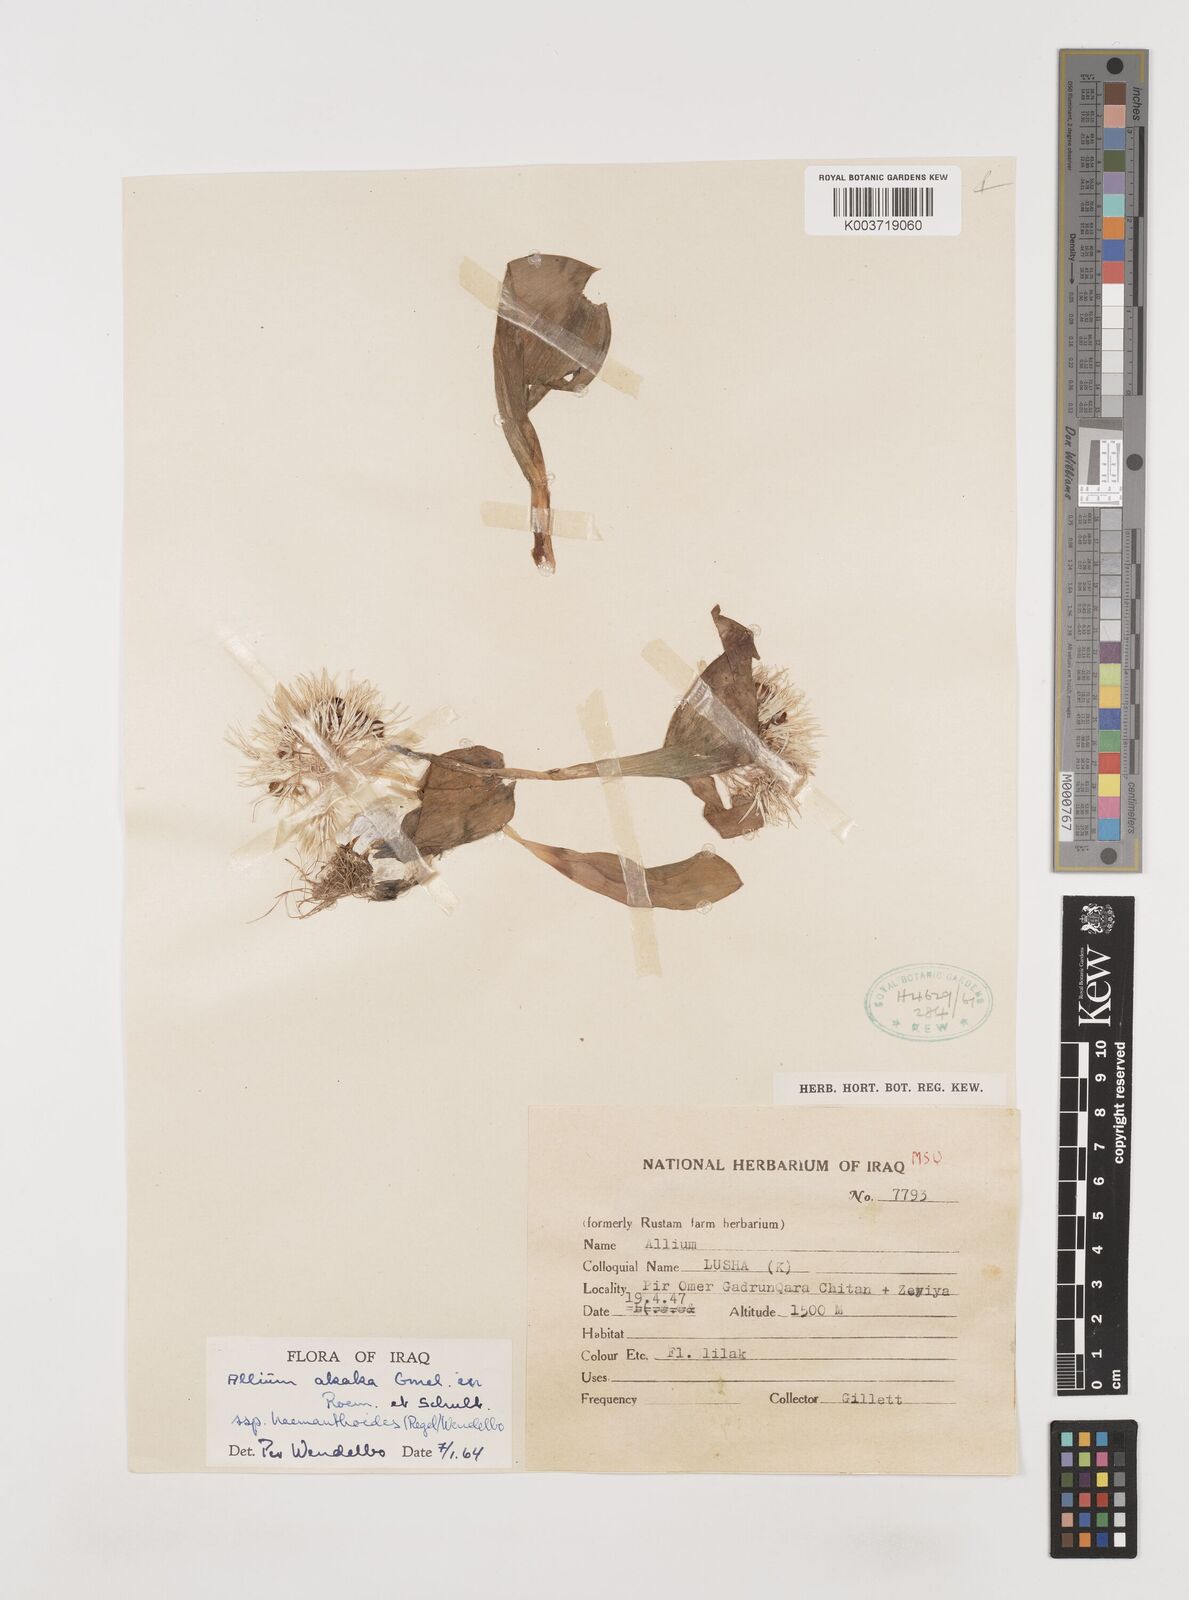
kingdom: Plantae
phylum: Tracheophyta
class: Liliopsida
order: Asparagales
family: Amaryllidaceae
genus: Allium
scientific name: Allium haemanthoides
